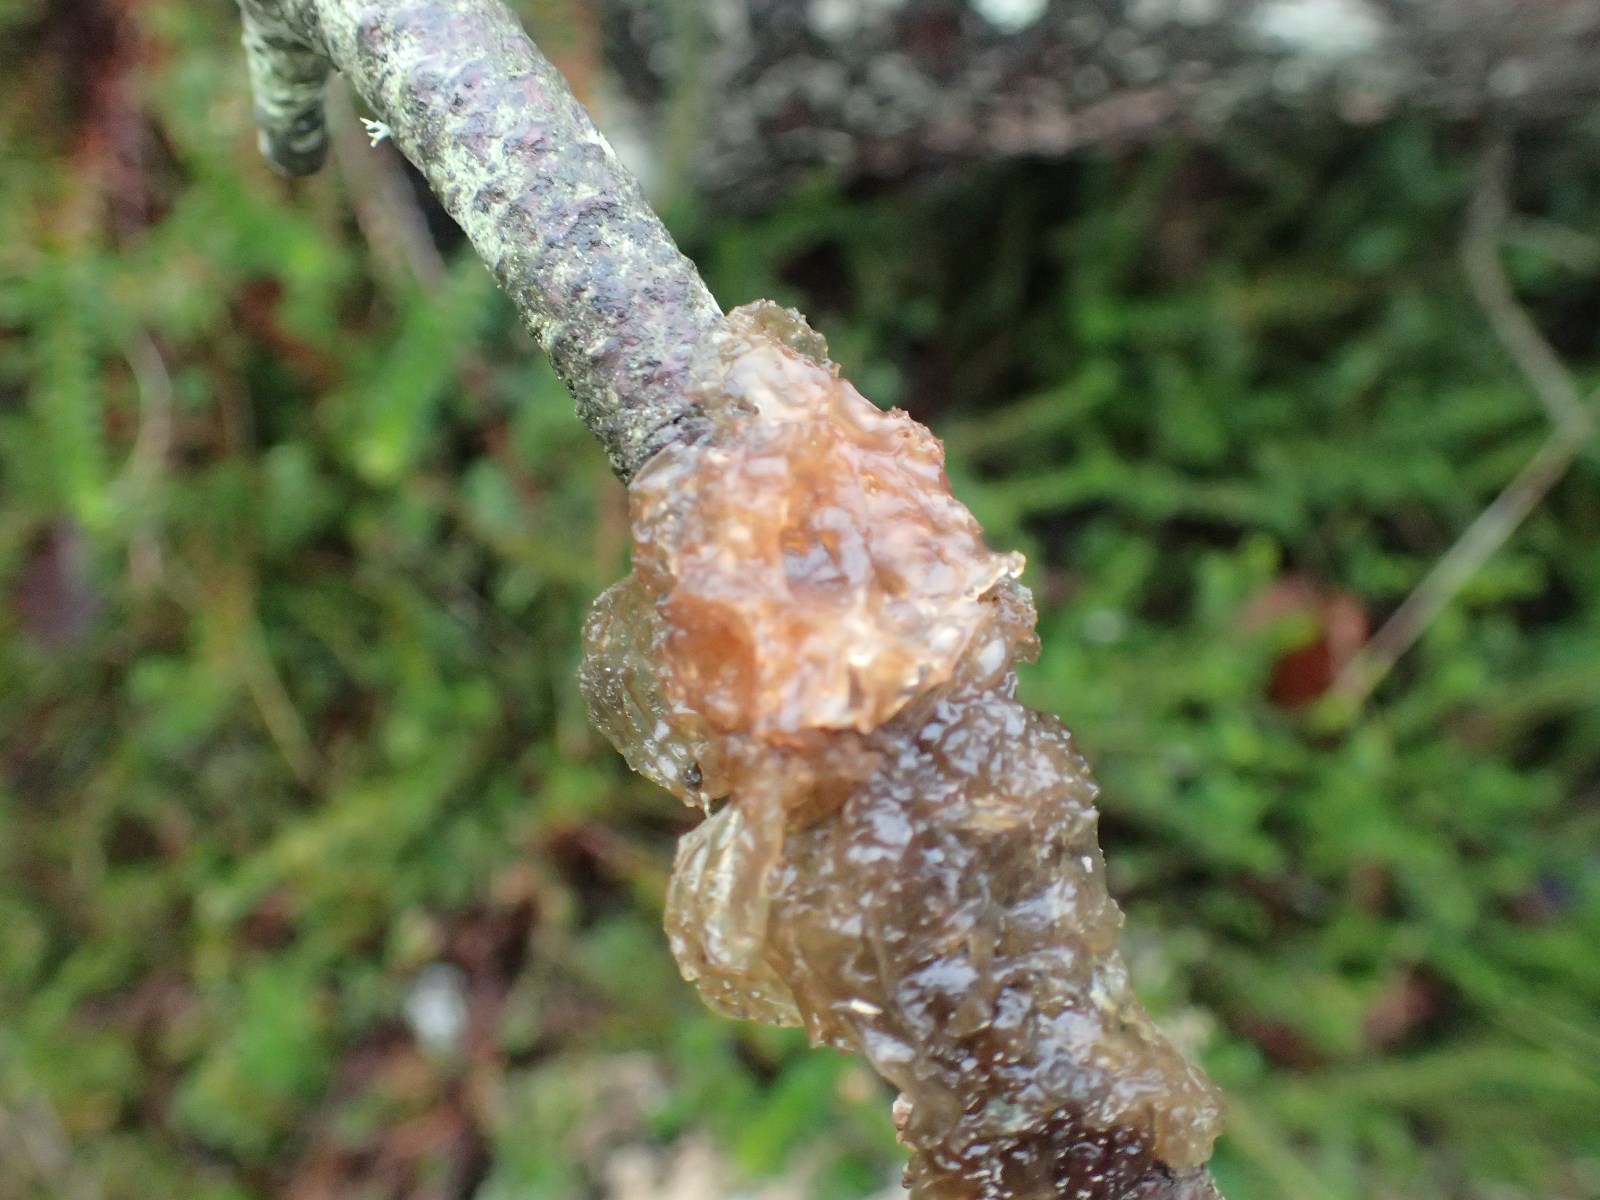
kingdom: Fungi
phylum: Basidiomycota
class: Agaricomycetes
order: Auriculariales
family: Auriculariaceae
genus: Exidia
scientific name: Exidia saccharina
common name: kandis-bævretop
